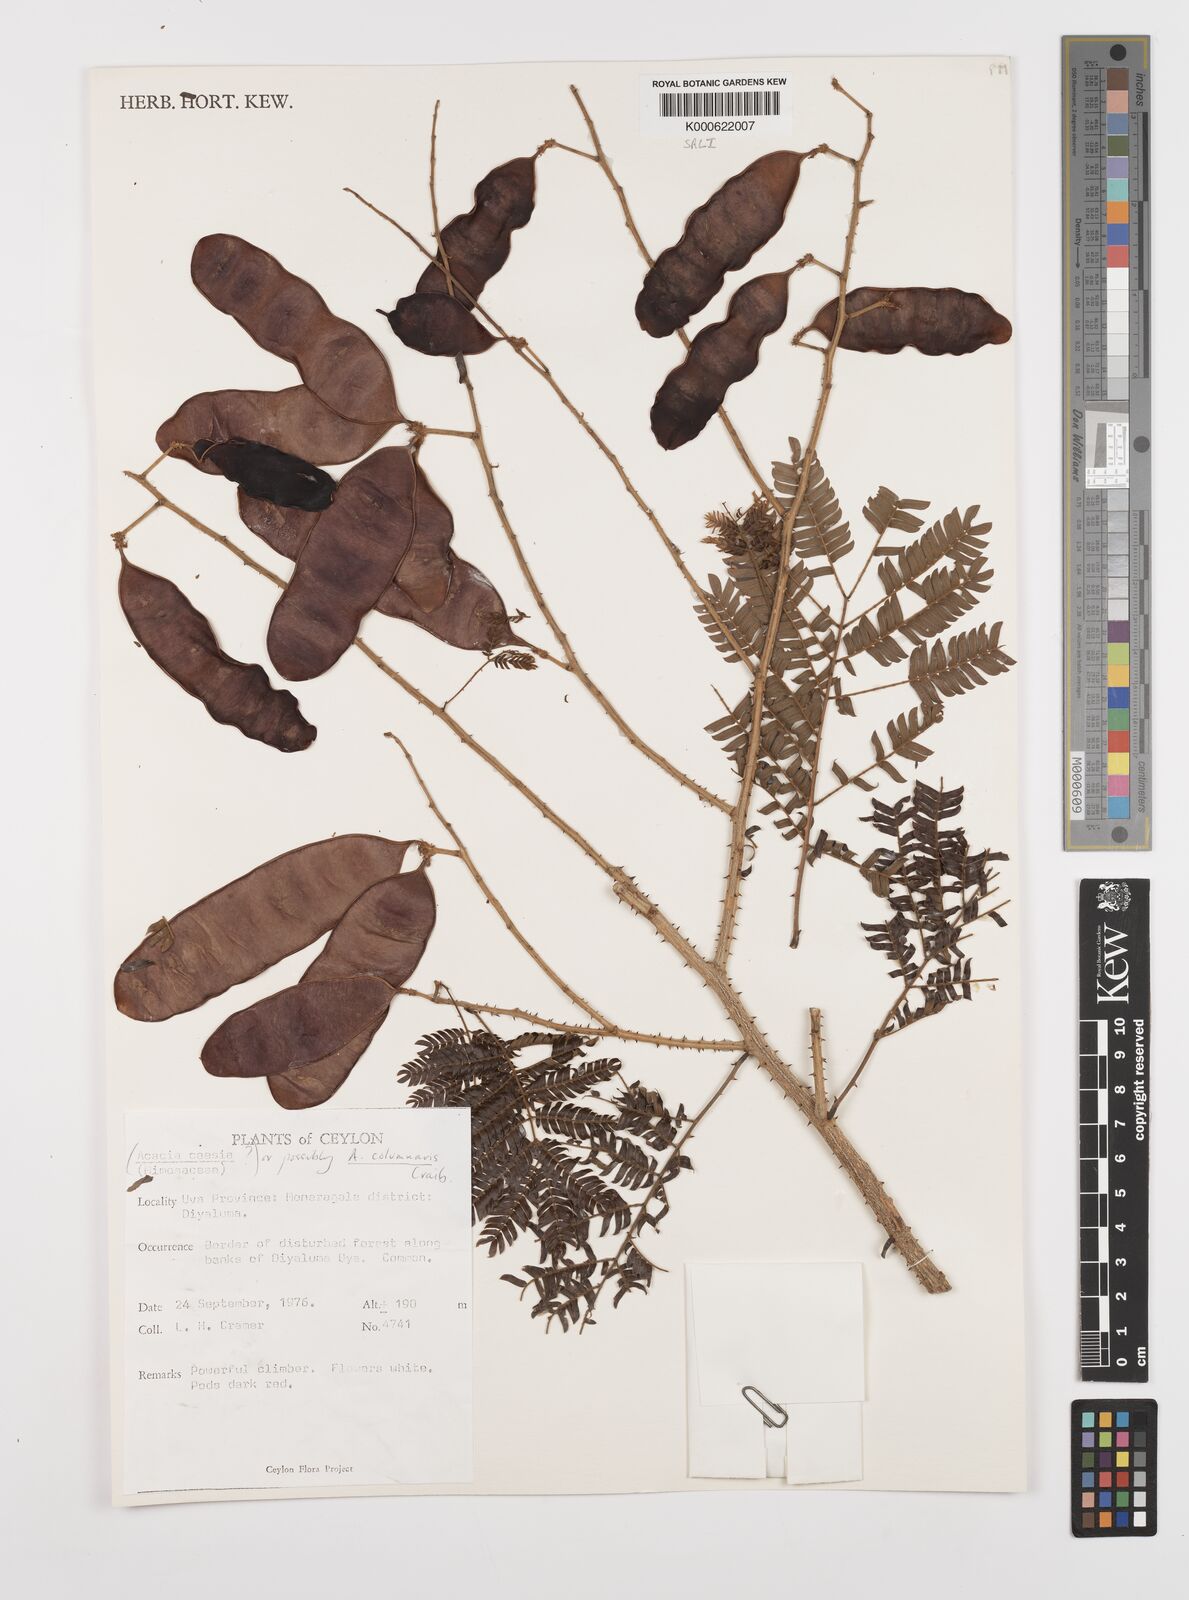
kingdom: Plantae
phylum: Tracheophyta
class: Magnoliopsida
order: Fabales
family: Fabaceae
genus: Senegalia
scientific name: Senegalia caesia
